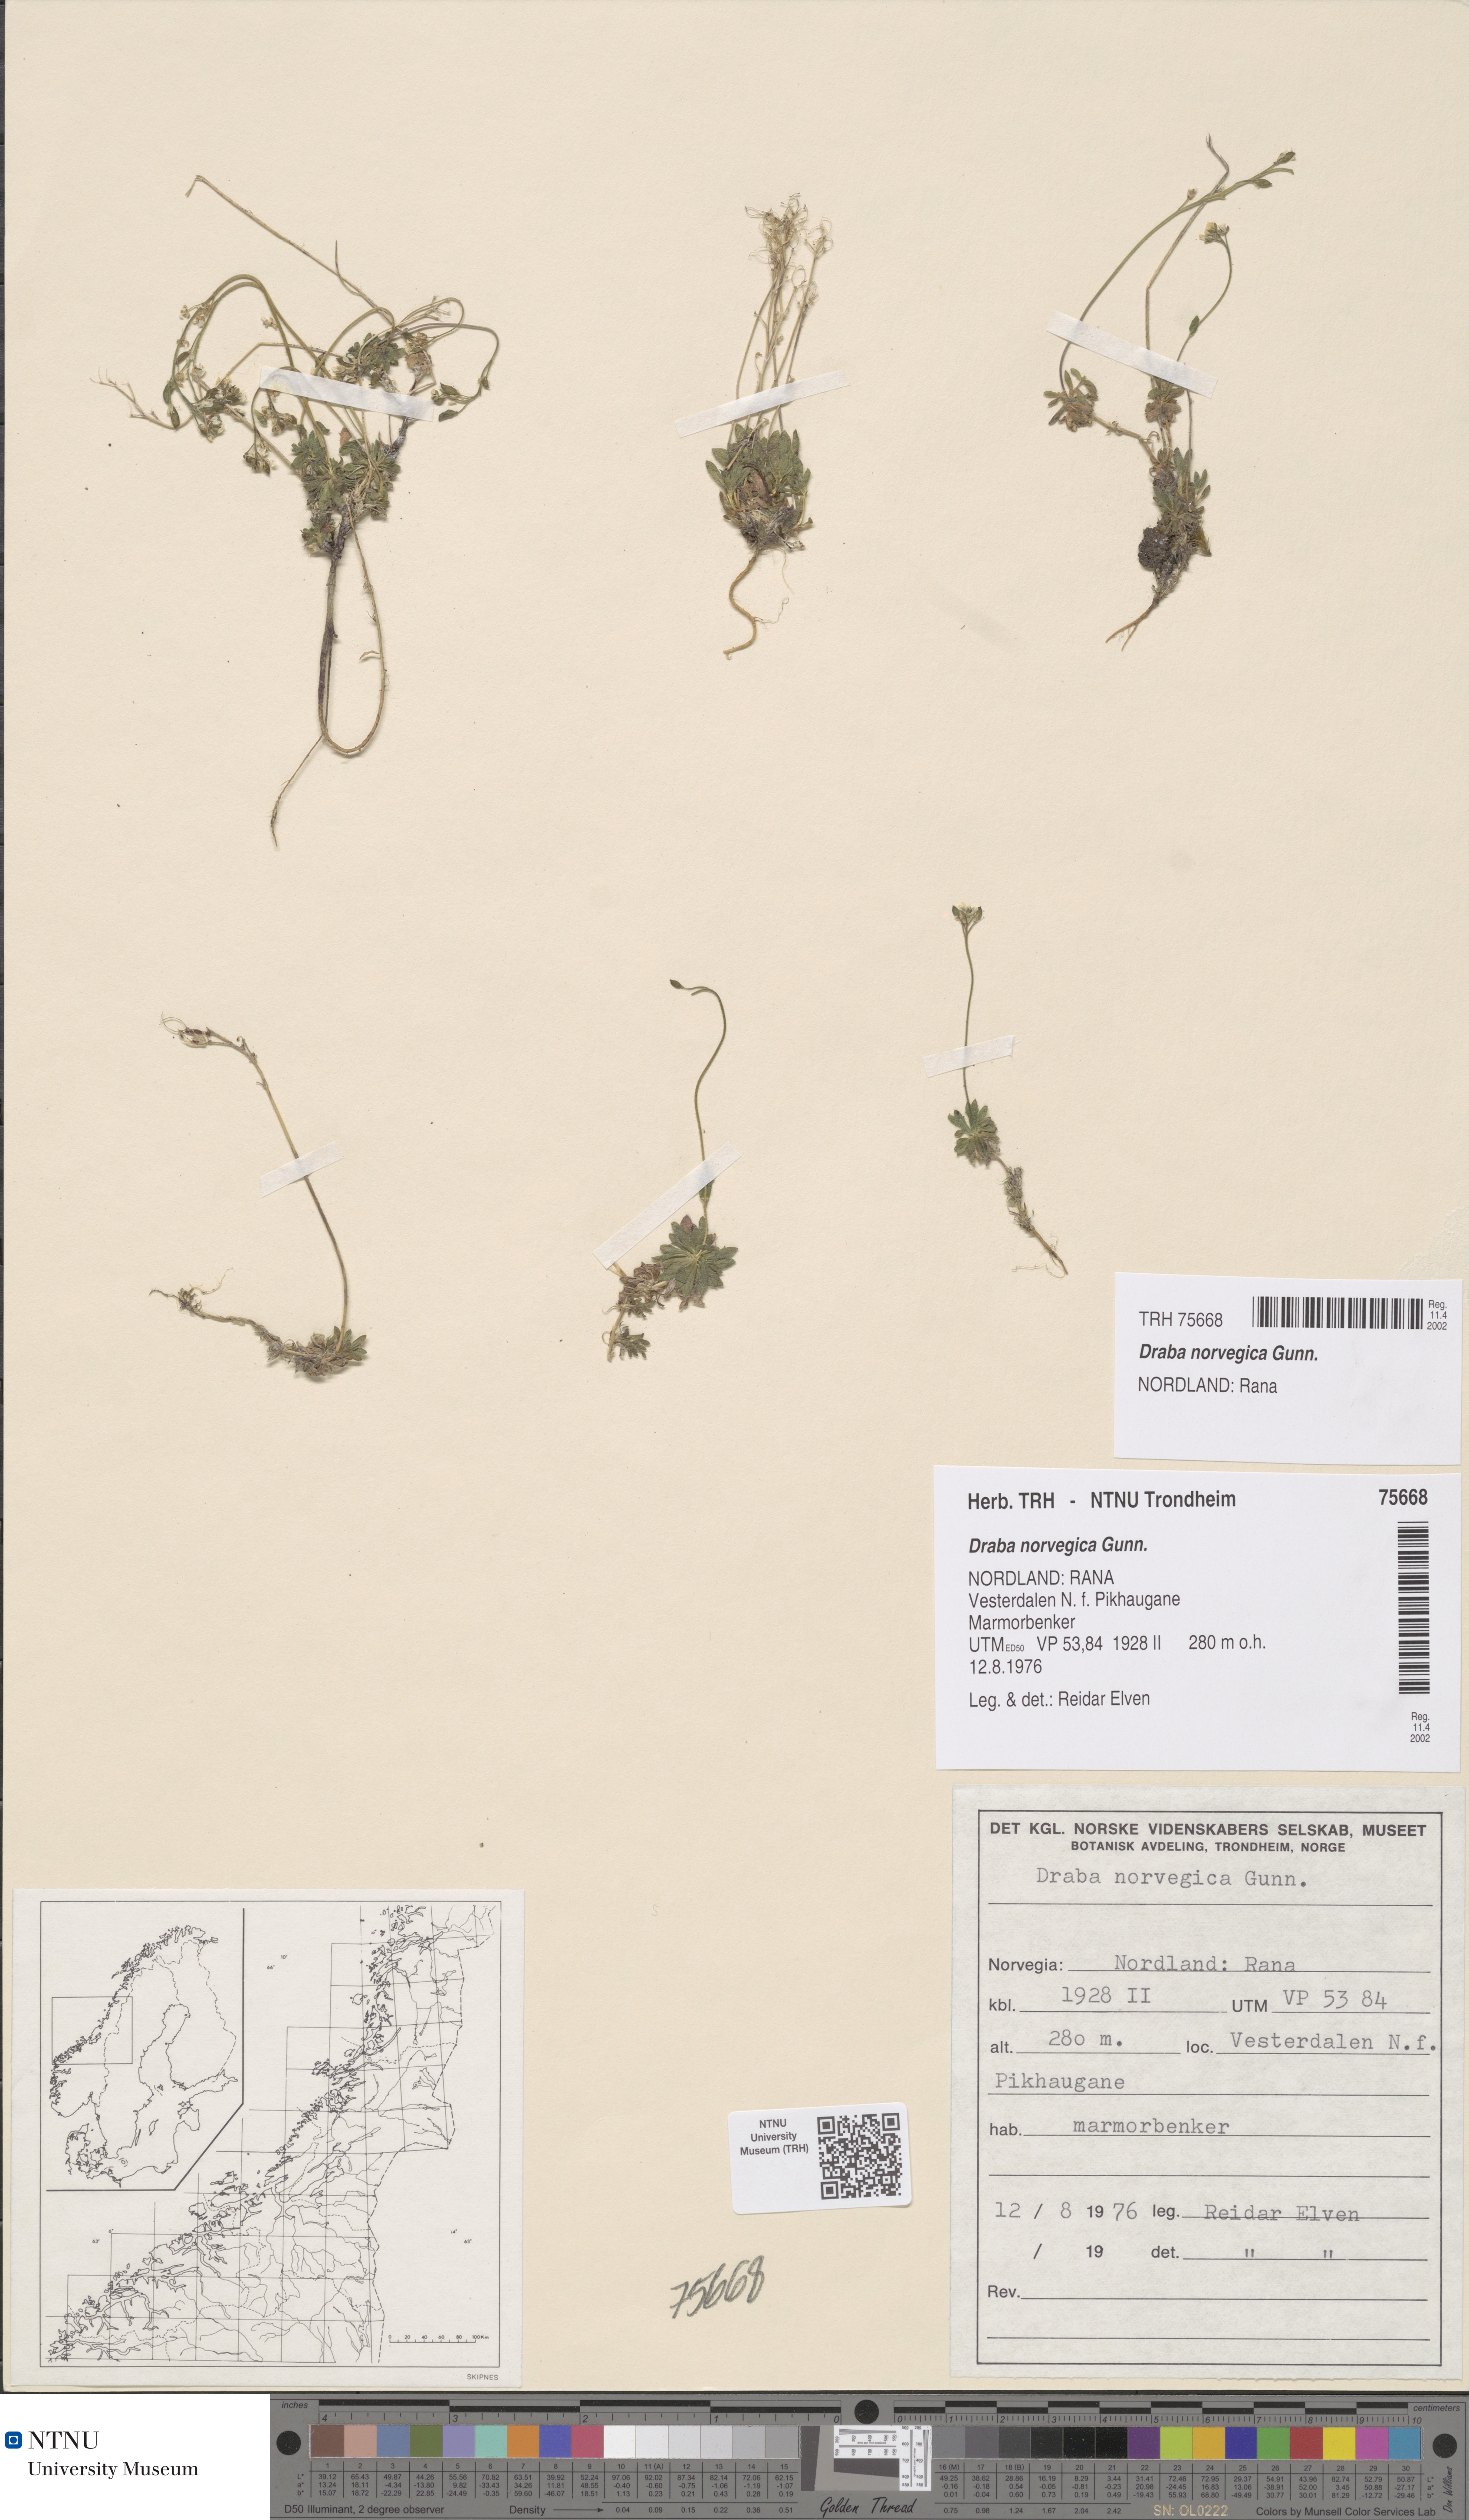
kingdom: Plantae
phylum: Tracheophyta
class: Magnoliopsida
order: Brassicales
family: Brassicaceae
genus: Draba
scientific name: Draba norvegica
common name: Rock whitlowgrass
